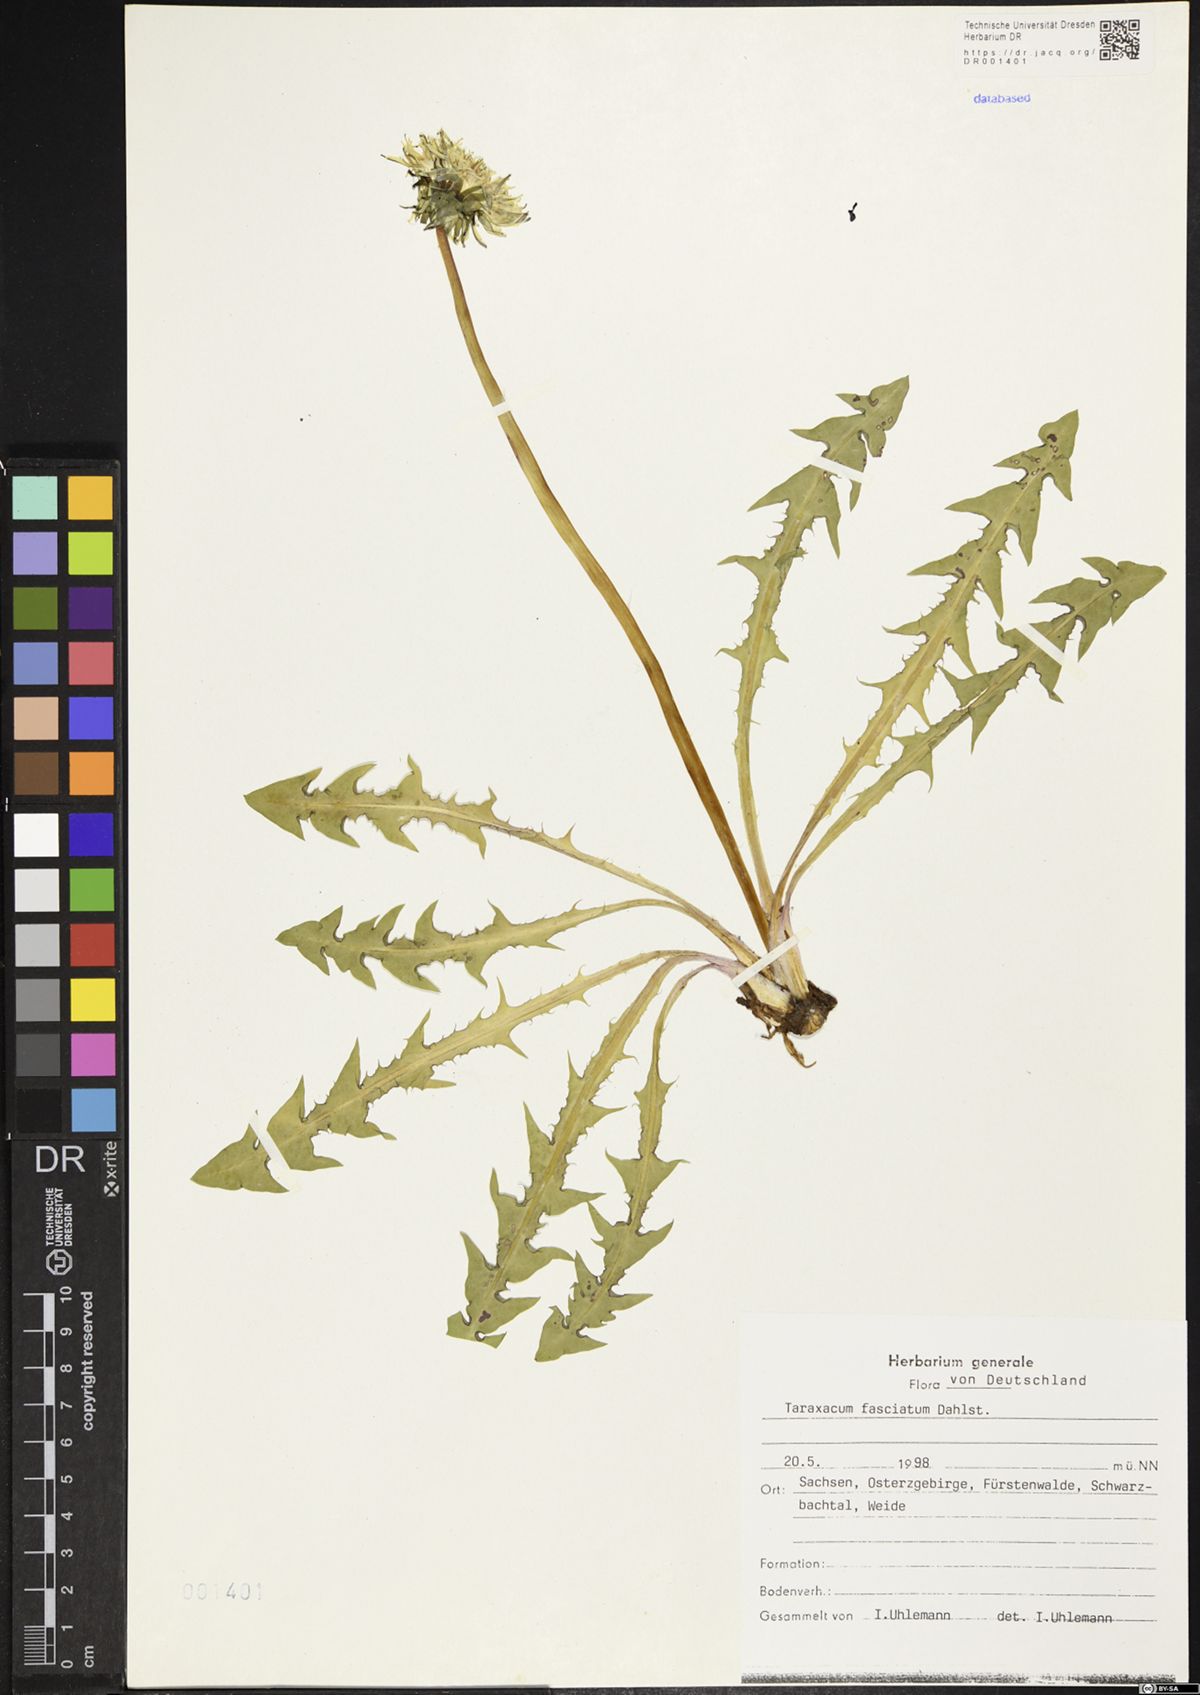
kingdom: Plantae
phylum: Tracheophyta
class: Magnoliopsida
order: Asterales
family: Asteraceae
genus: Taraxacum
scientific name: Taraxacum fasciatum
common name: Dense-bracted dandelion
